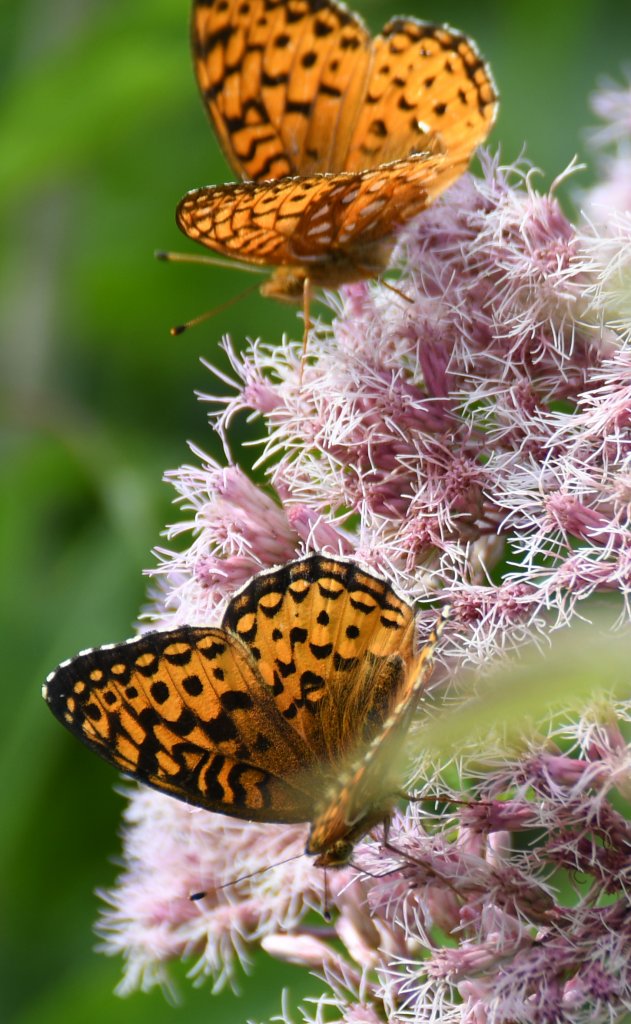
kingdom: Animalia
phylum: Arthropoda
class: Insecta
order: Lepidoptera
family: Nymphalidae
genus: Speyeria
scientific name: Speyeria aphrodite
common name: Aphrodite Fritillary
